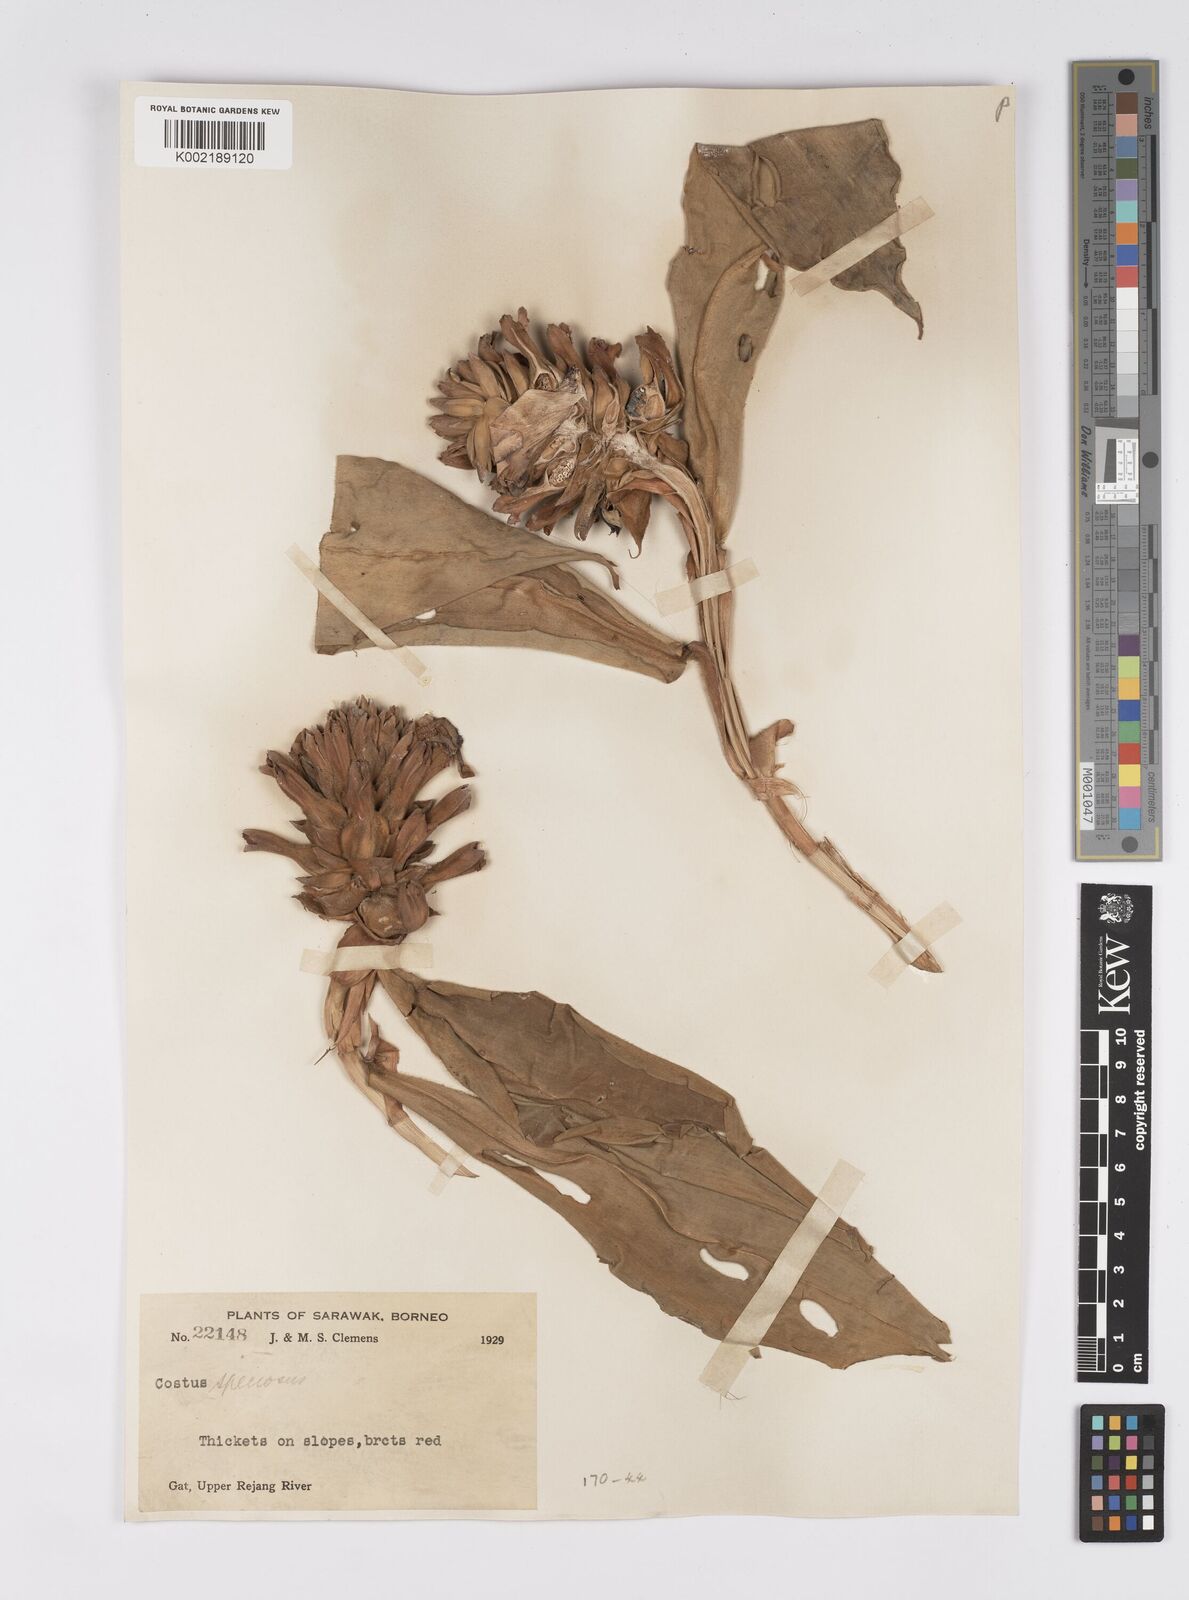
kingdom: Plantae
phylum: Tracheophyta
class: Liliopsida
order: Zingiberales
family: Costaceae
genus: Hellenia
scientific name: Hellenia speciosa
